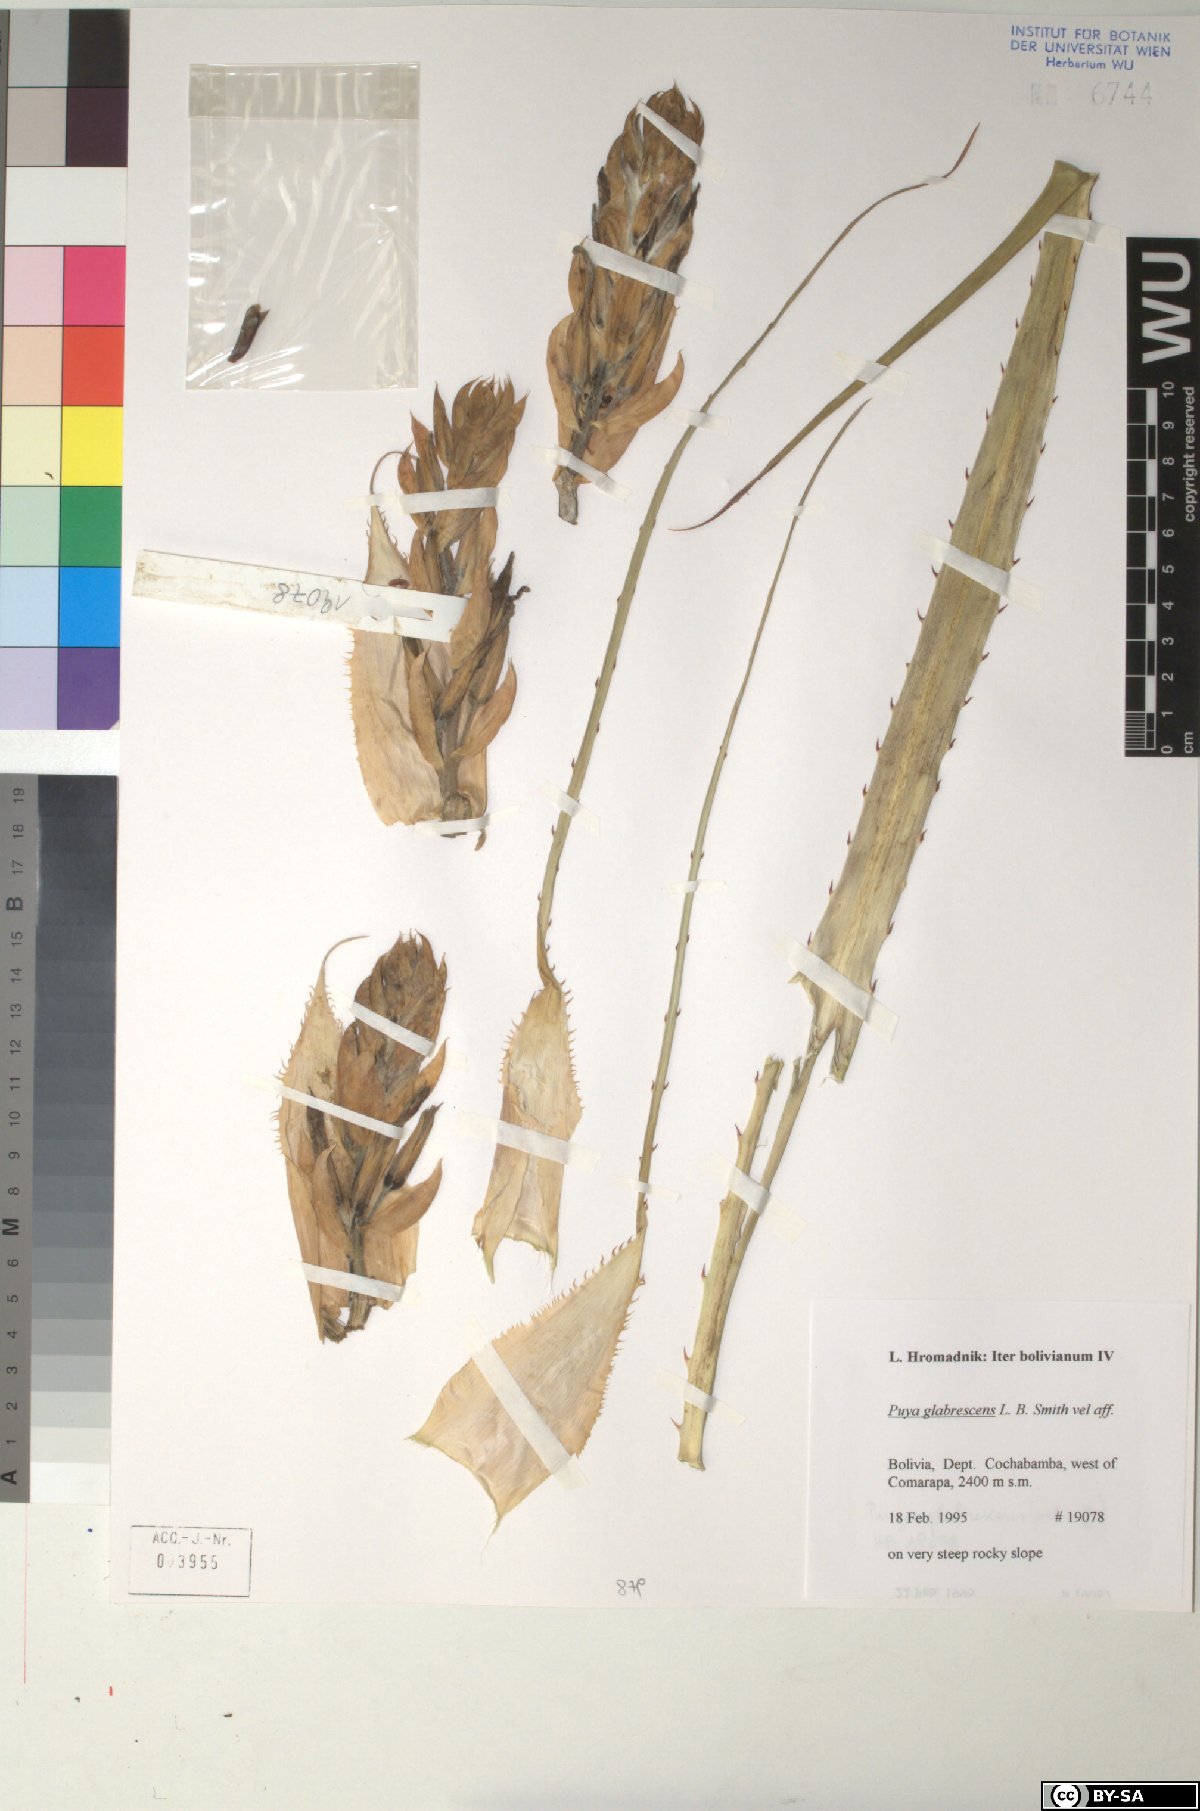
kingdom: Plantae
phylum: Tracheophyta
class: Liliopsida
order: Poales
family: Bromeliaceae
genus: Puya
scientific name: Puya glabrescens
